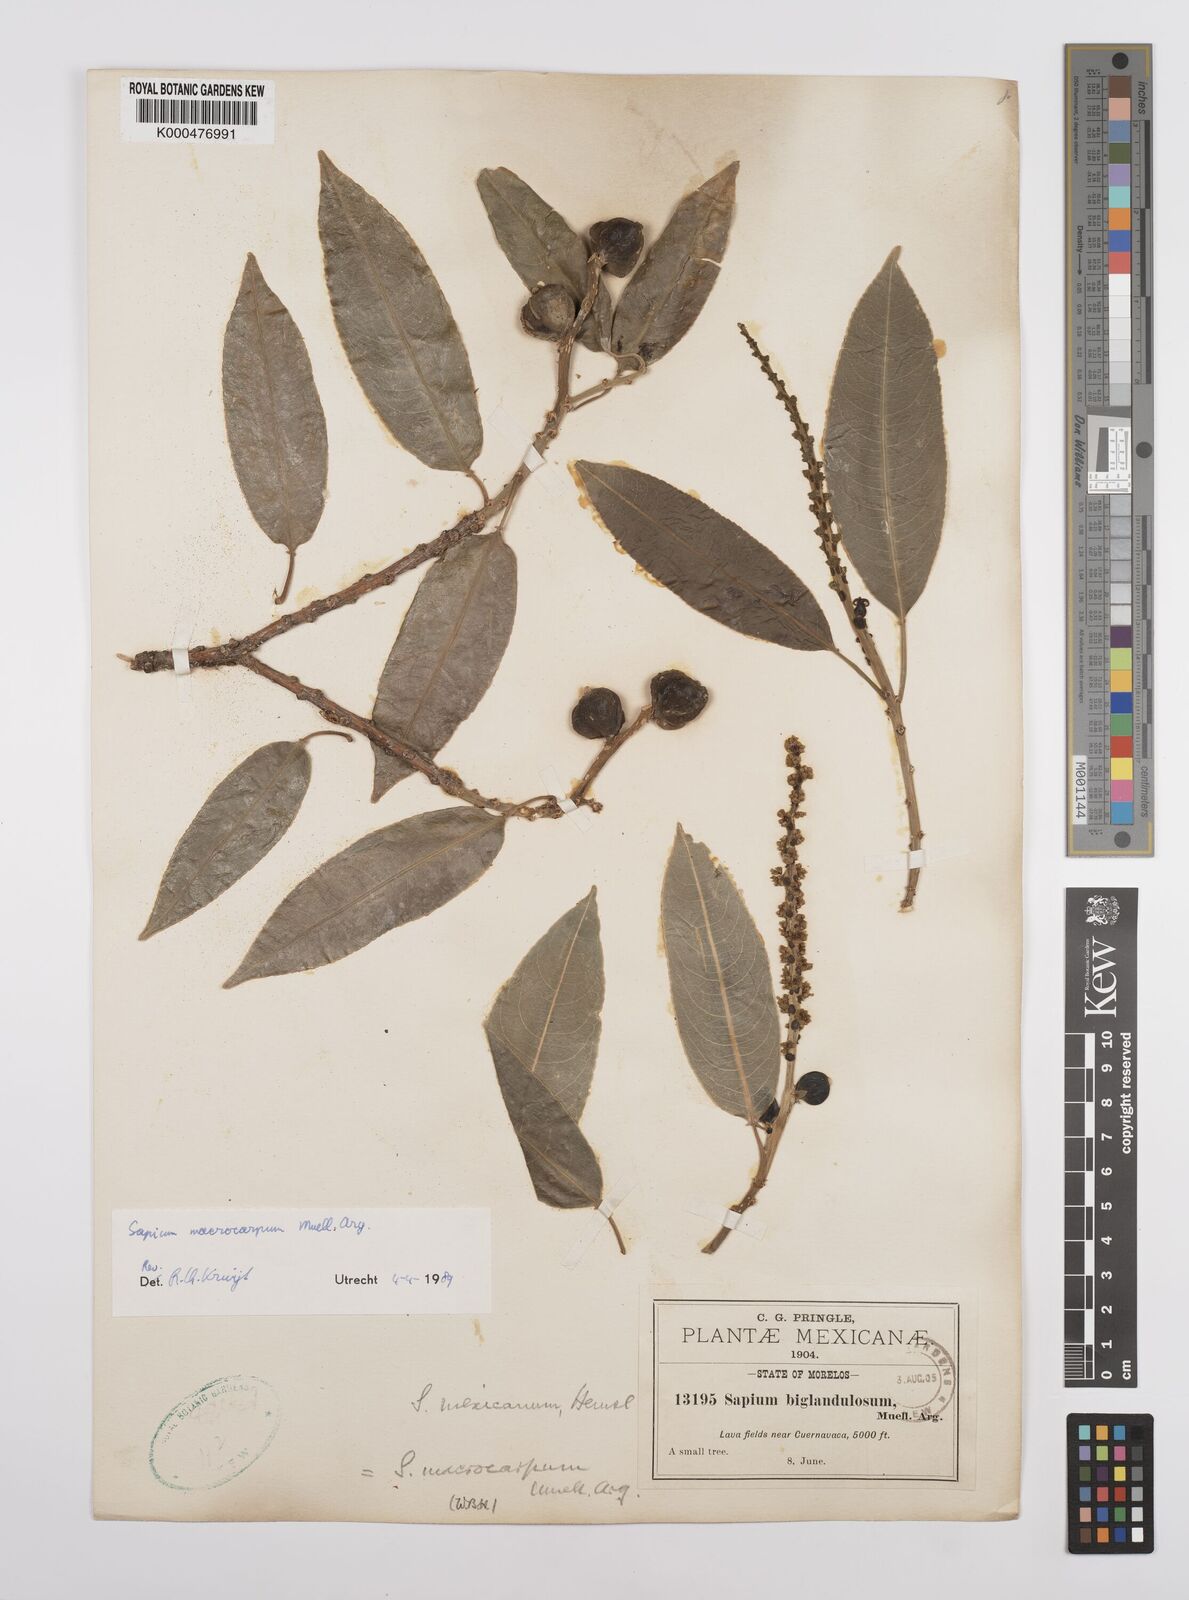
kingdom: Plantae
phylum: Tracheophyta
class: Magnoliopsida
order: Malpighiales
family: Euphorbiaceae
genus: Sapium
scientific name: Sapium
